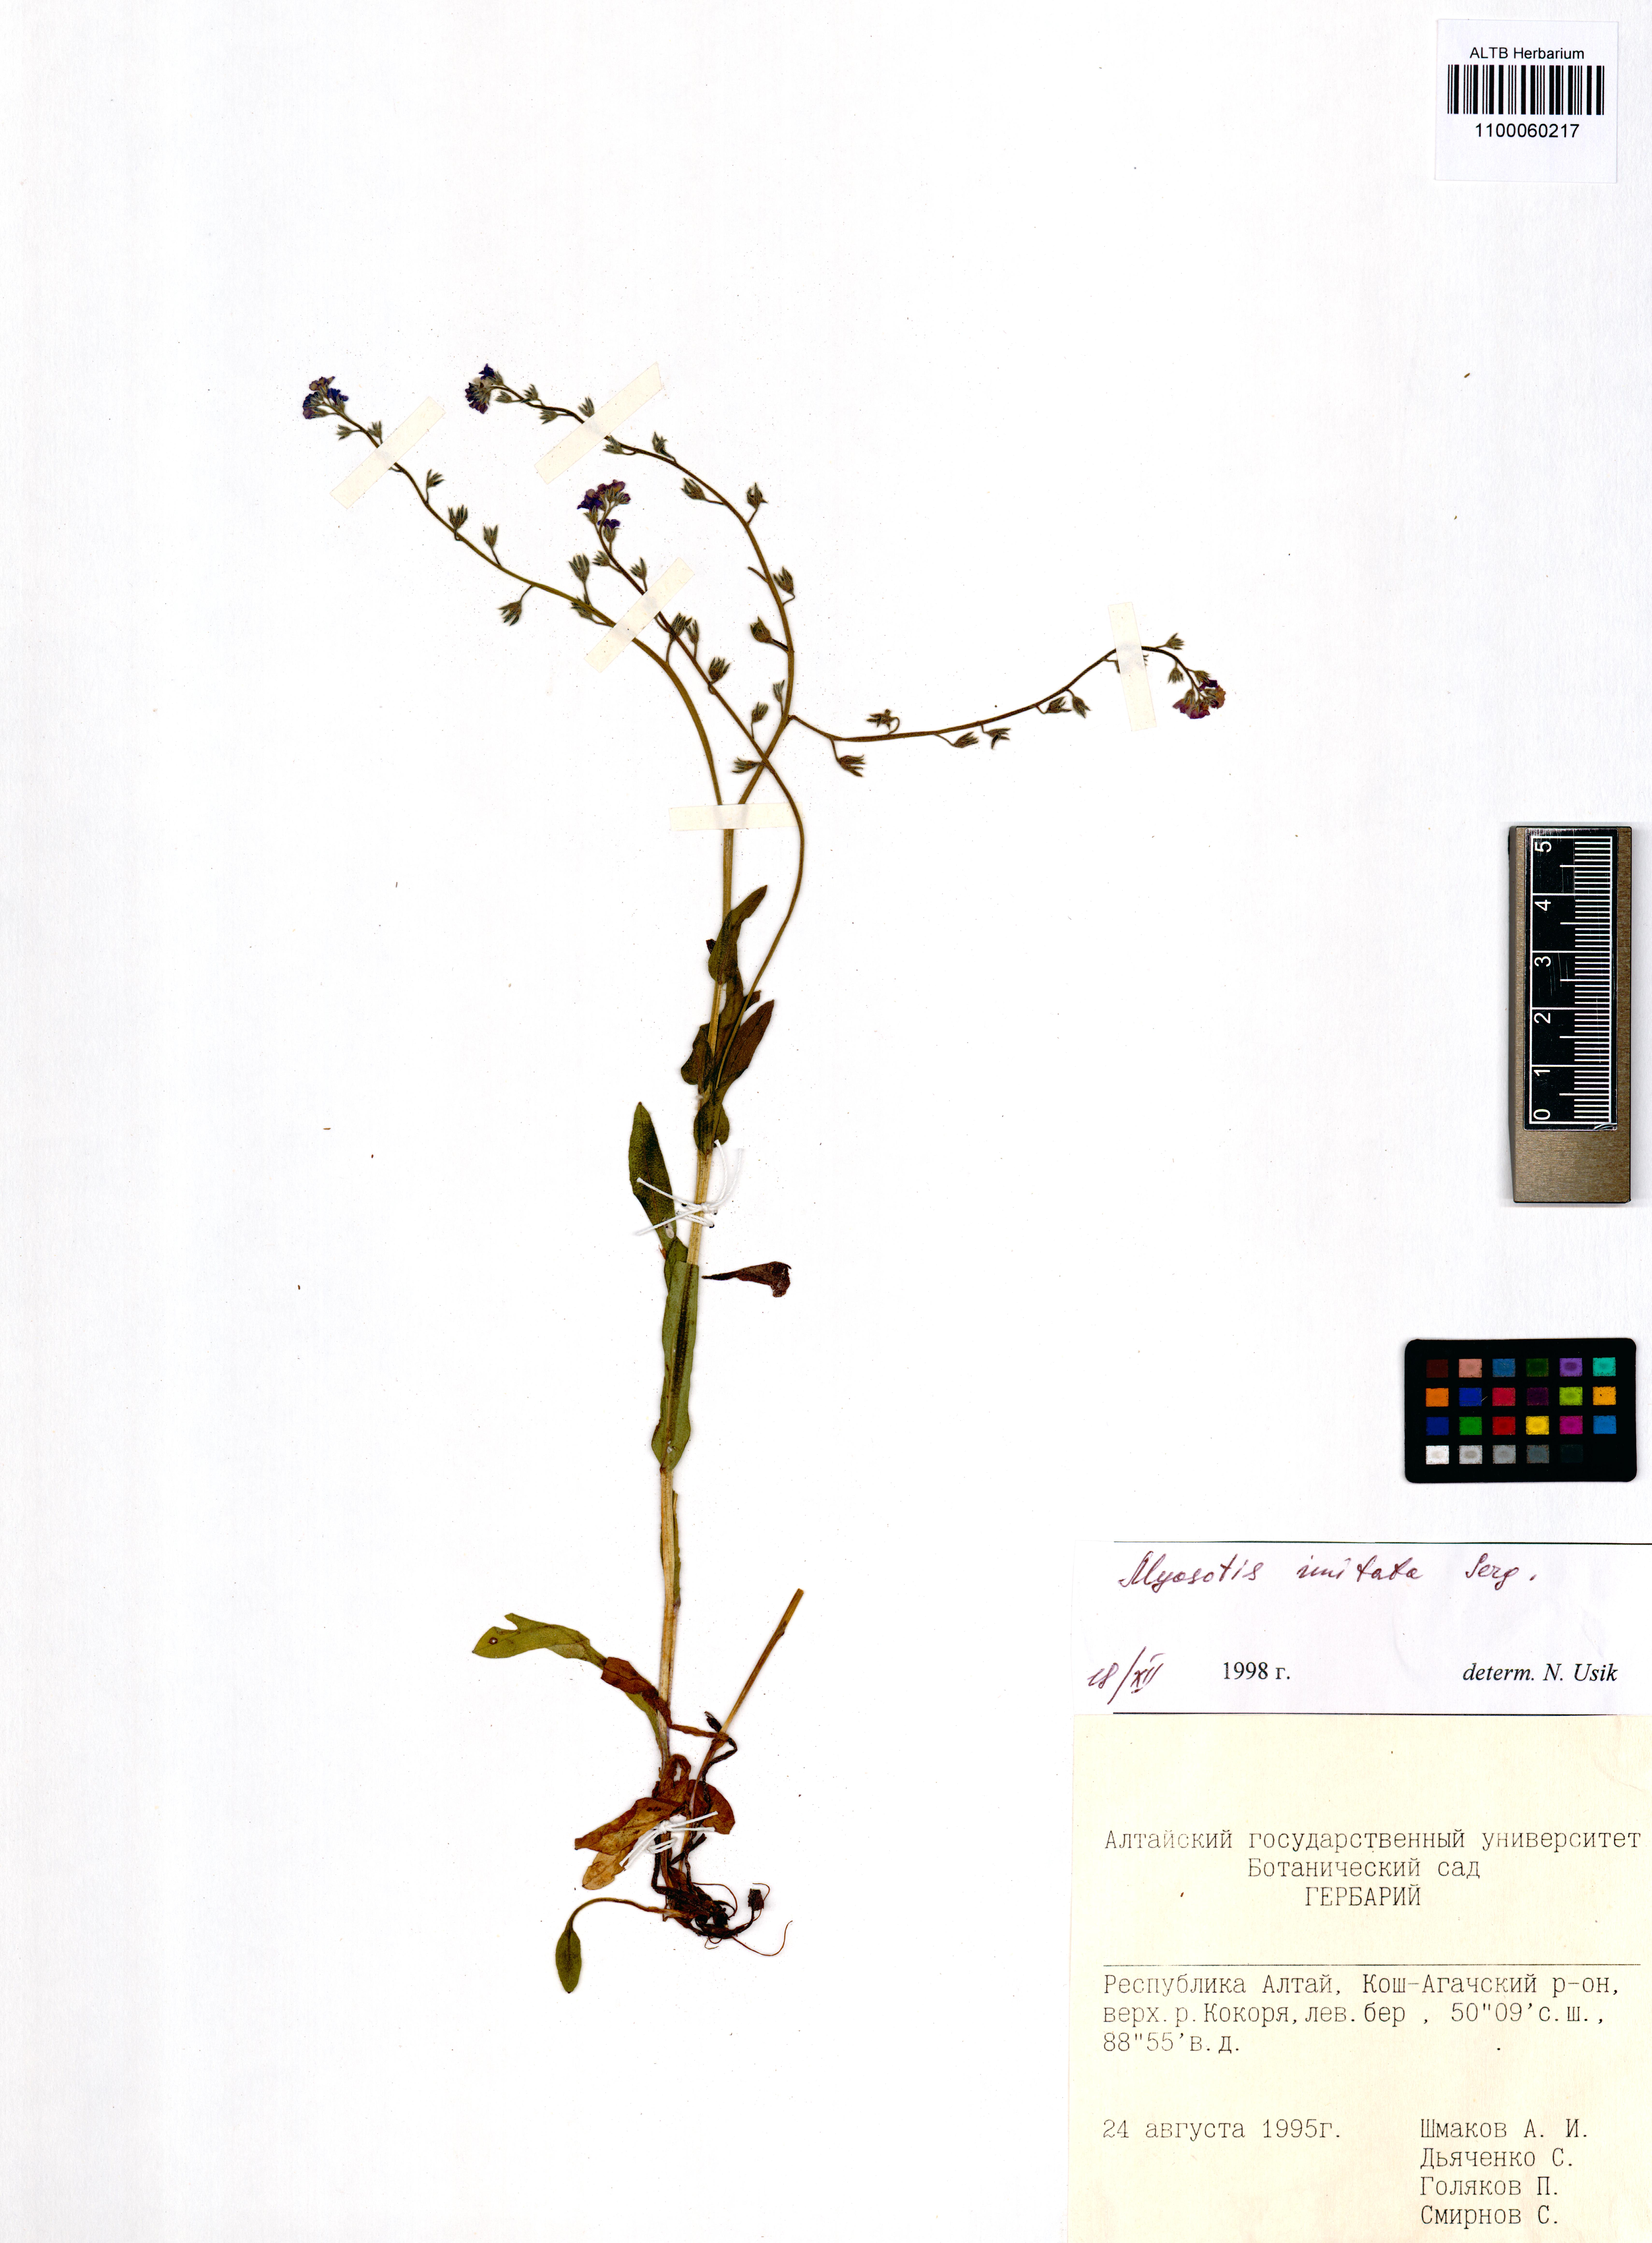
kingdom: Plantae
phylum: Tracheophyta
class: Magnoliopsida
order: Boraginales
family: Boraginaceae
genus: Myosotis
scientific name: Myosotis imitata
